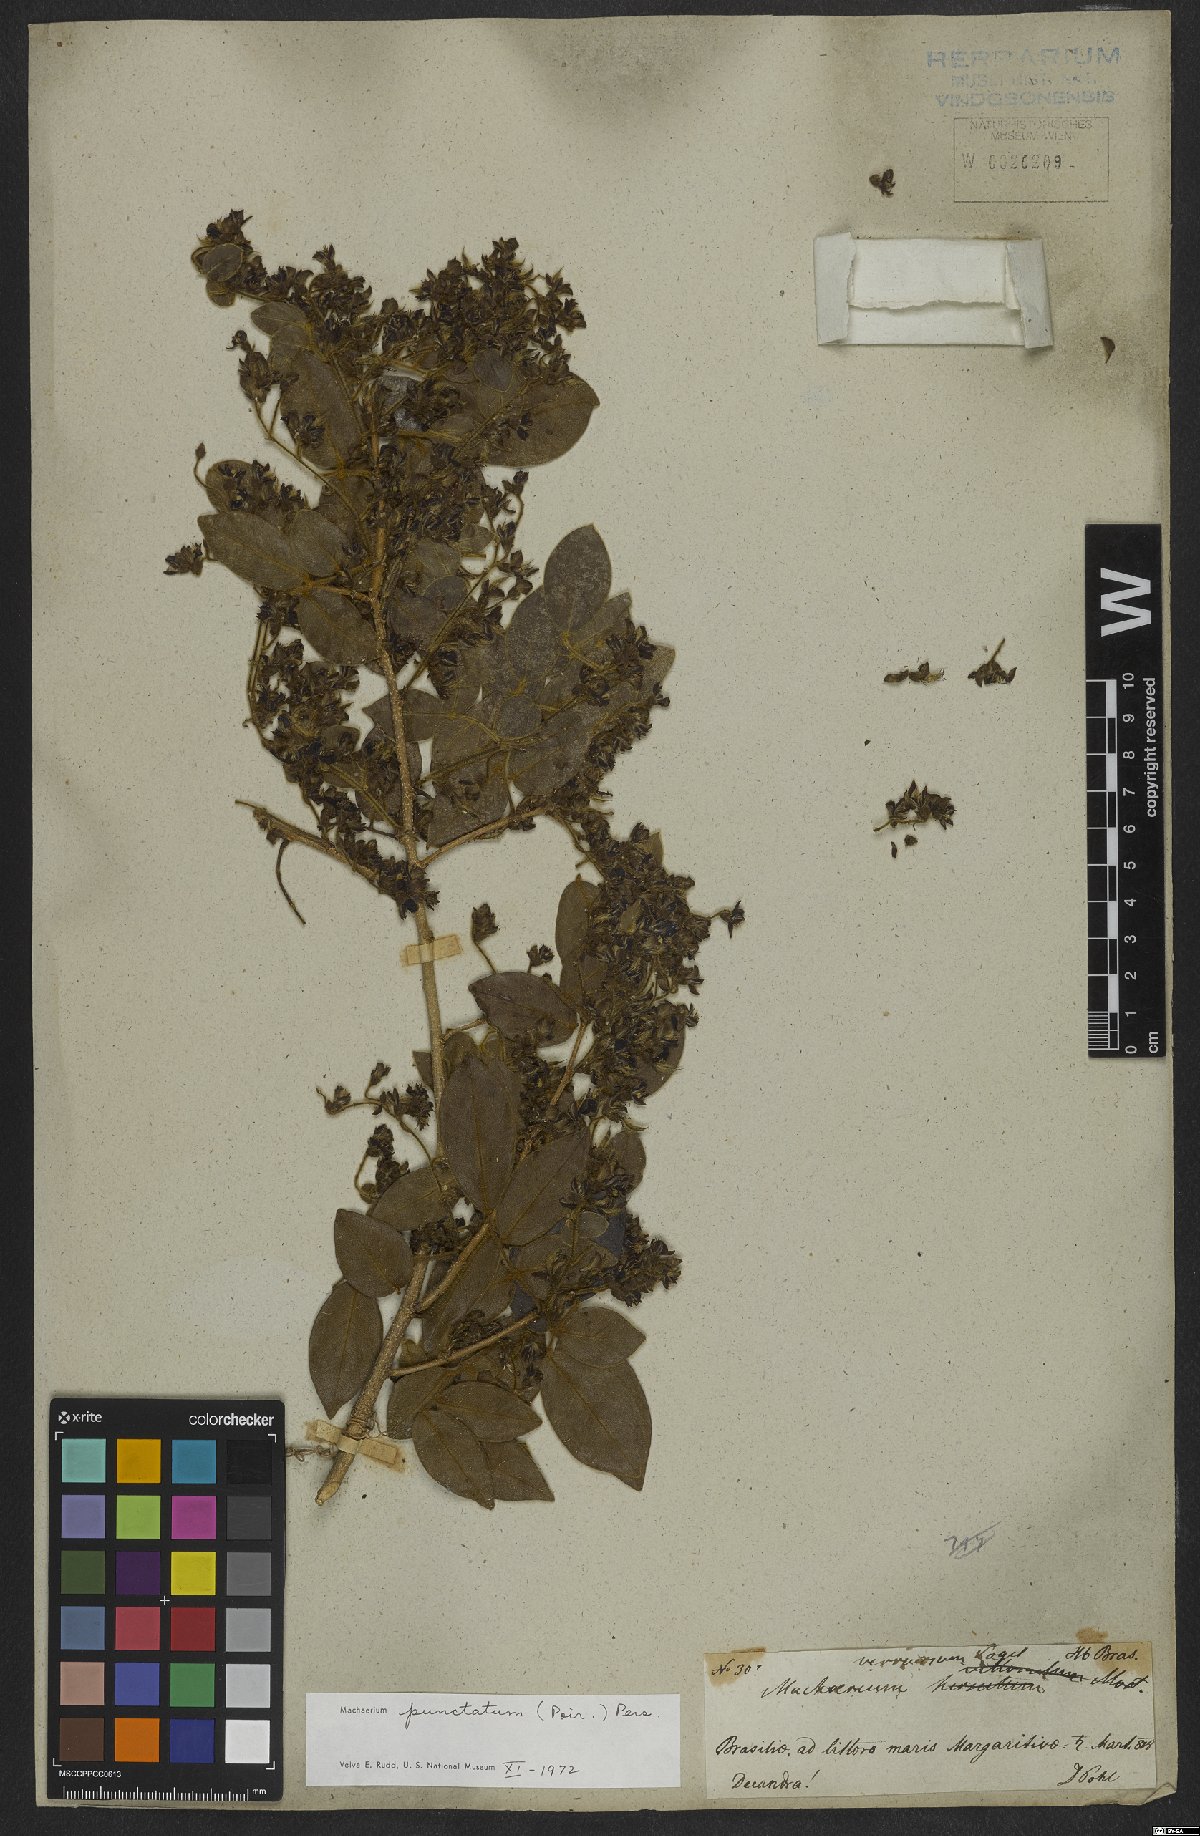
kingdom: Plantae
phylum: Tracheophyta
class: Magnoliopsida
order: Fabales
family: Fabaceae
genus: Machaerium
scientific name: Machaerium punctatum
